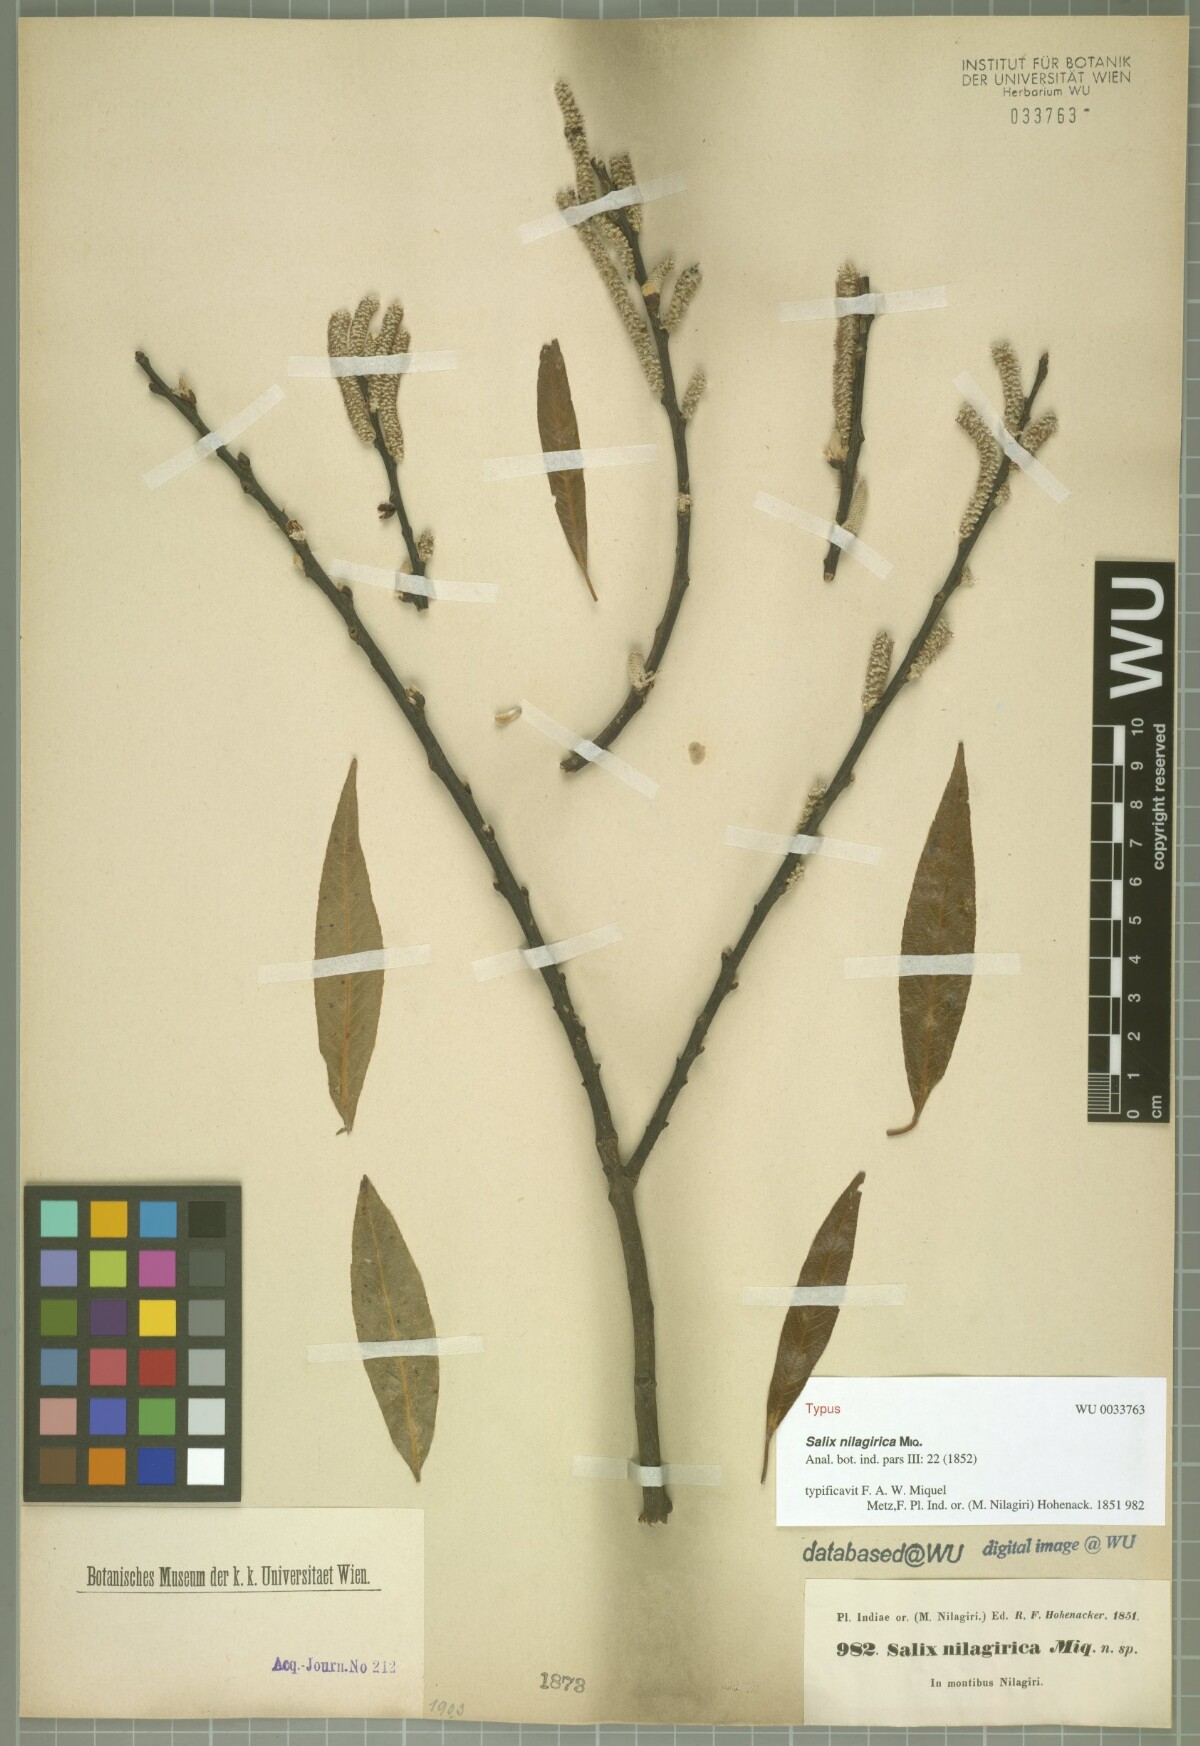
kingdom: Plantae
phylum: Tracheophyta
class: Magnoliopsida
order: Malpighiales
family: Salicaceae
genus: Salix
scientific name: Salix tetrasperma
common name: Indian willow
